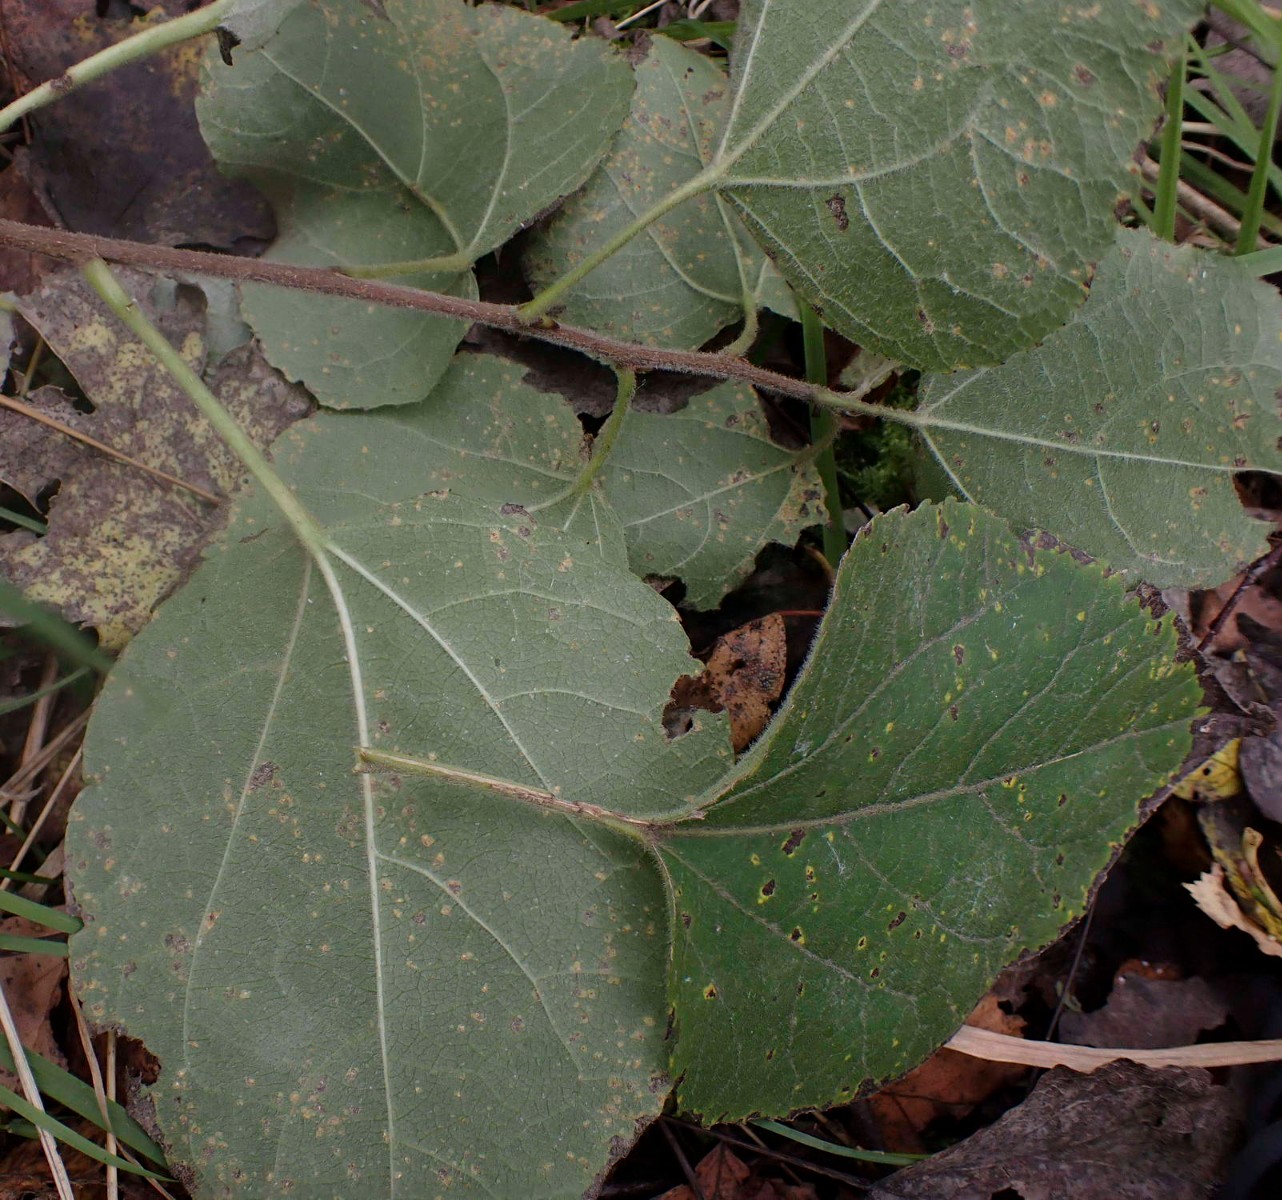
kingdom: Fungi
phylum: Basidiomycota
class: Pucciniomycetes
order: Pucciniales
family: Melampsoraceae
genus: Melampsora
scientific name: Melampsora populnea
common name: poppel-skorperust
